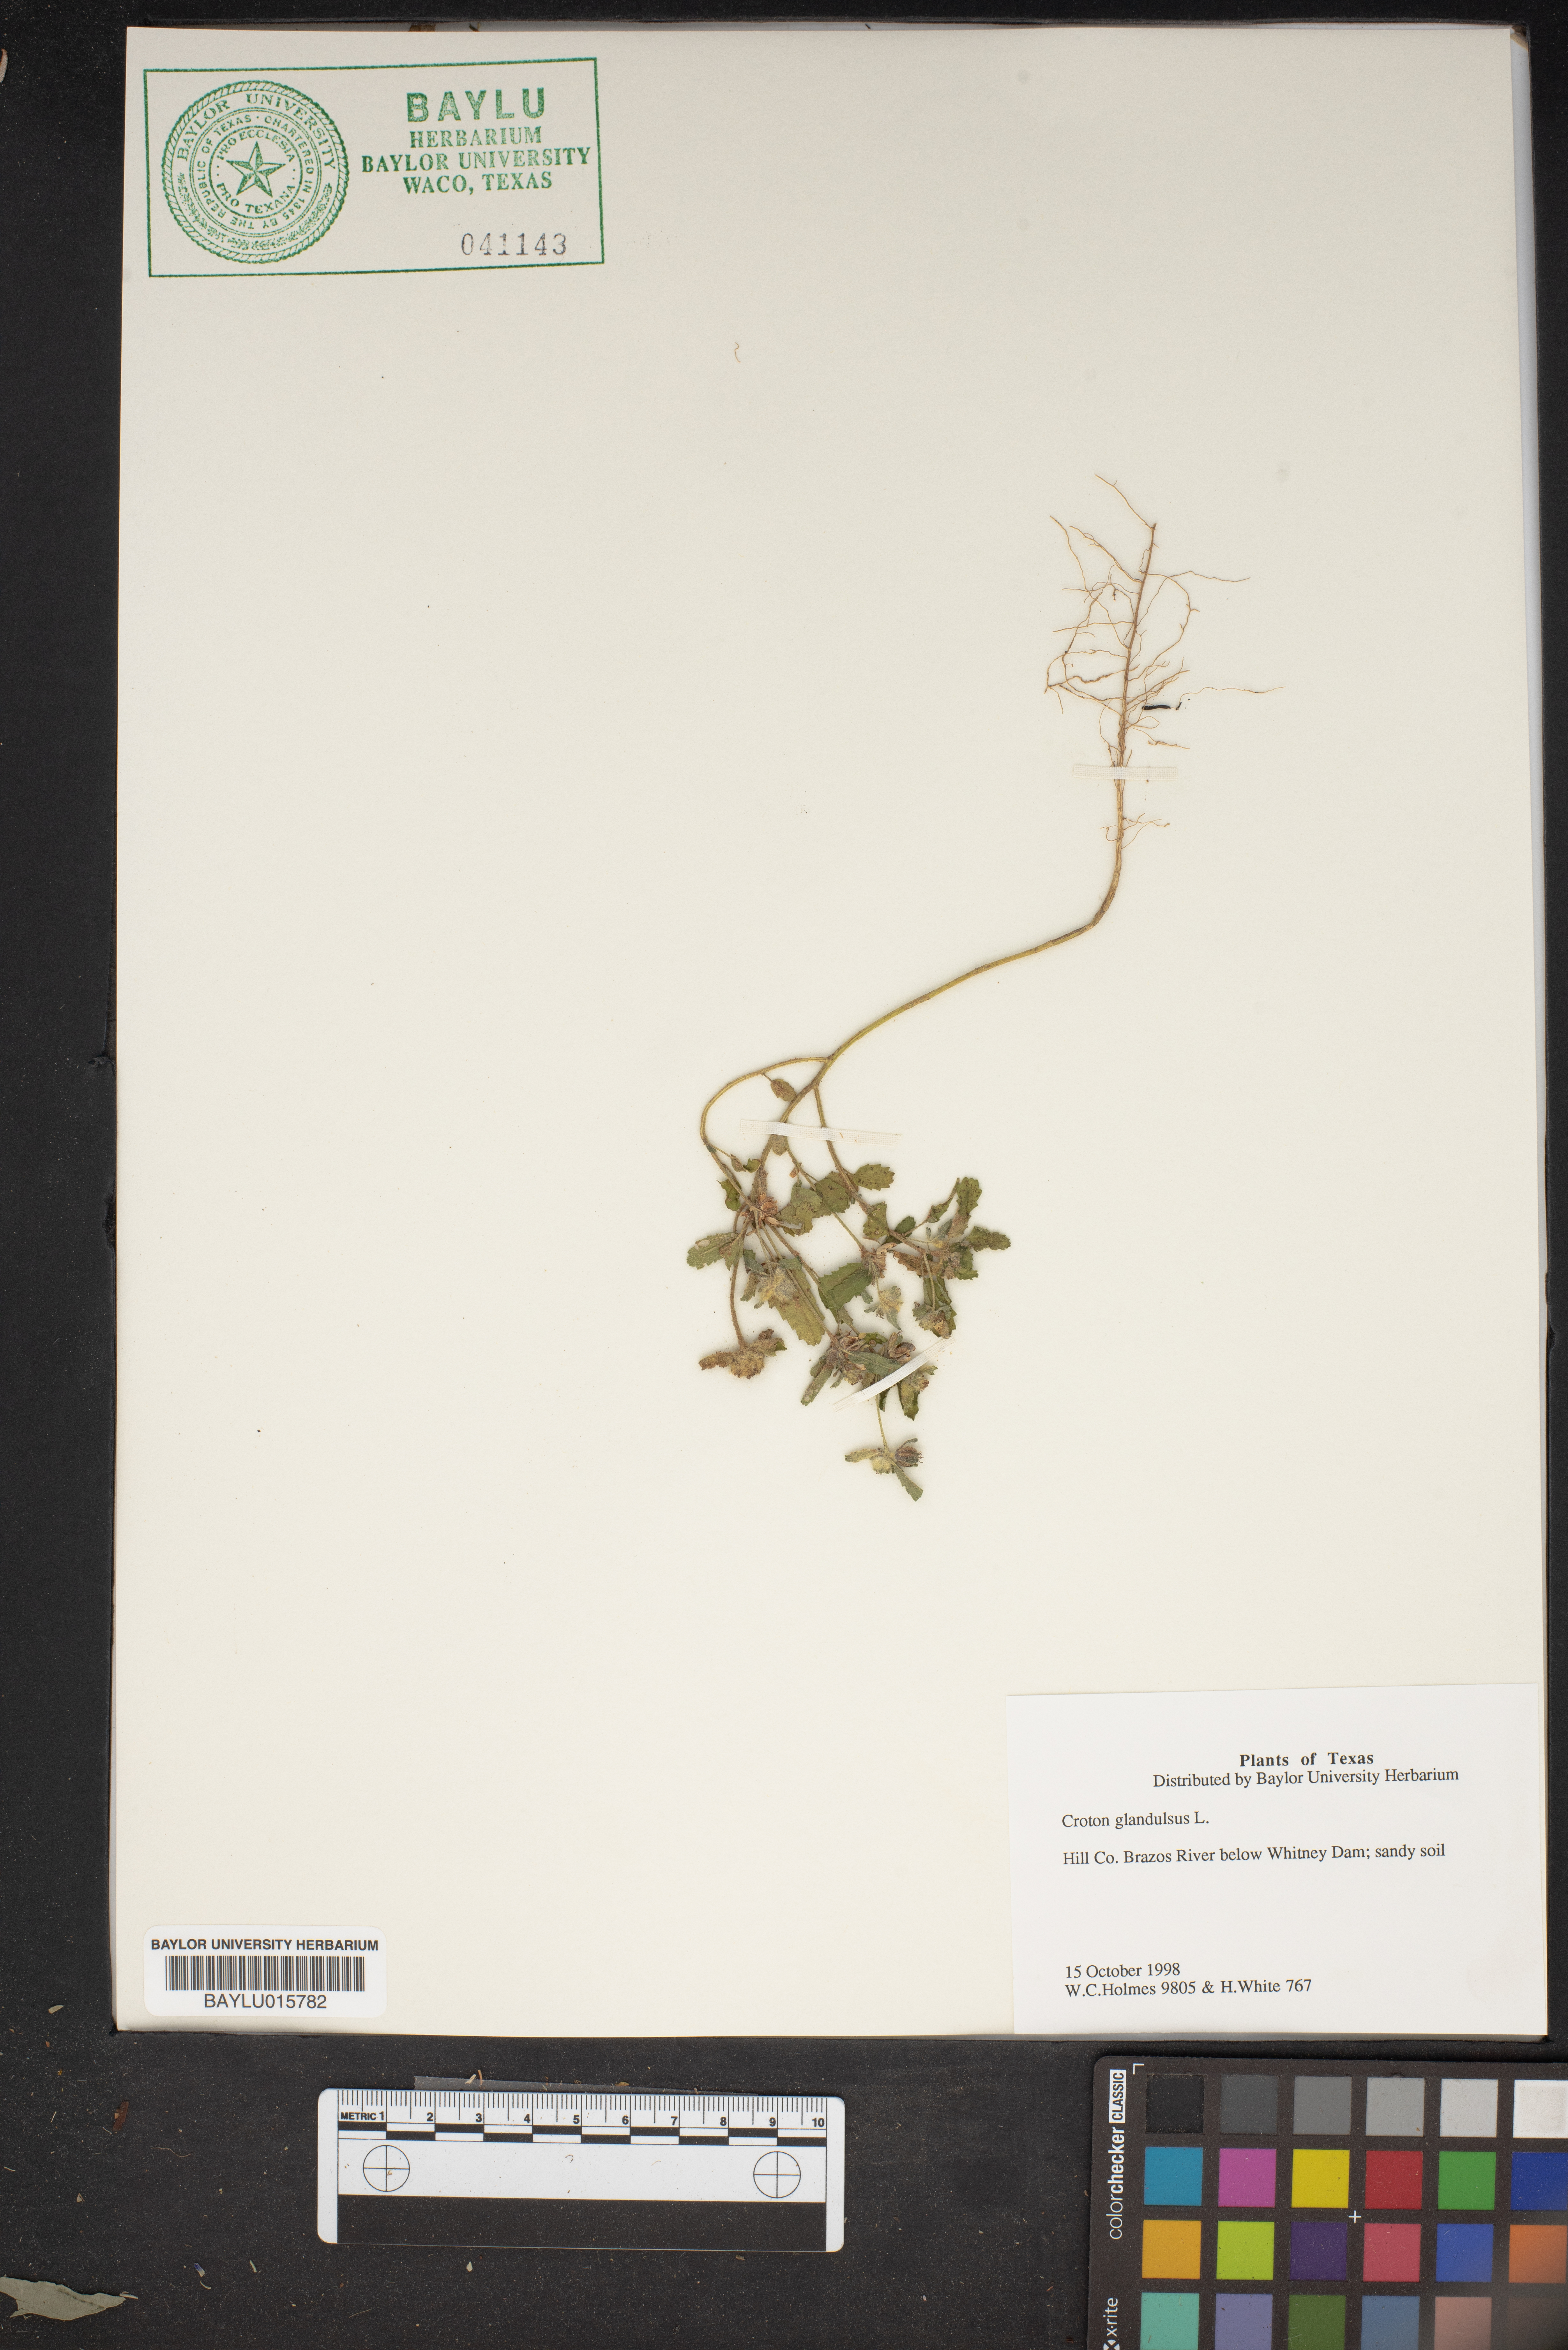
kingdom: Plantae
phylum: Tracheophyta
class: Magnoliopsida
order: Malpighiales
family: Euphorbiaceae
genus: Croton
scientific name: Croton glandulosus
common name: Tropic croton
